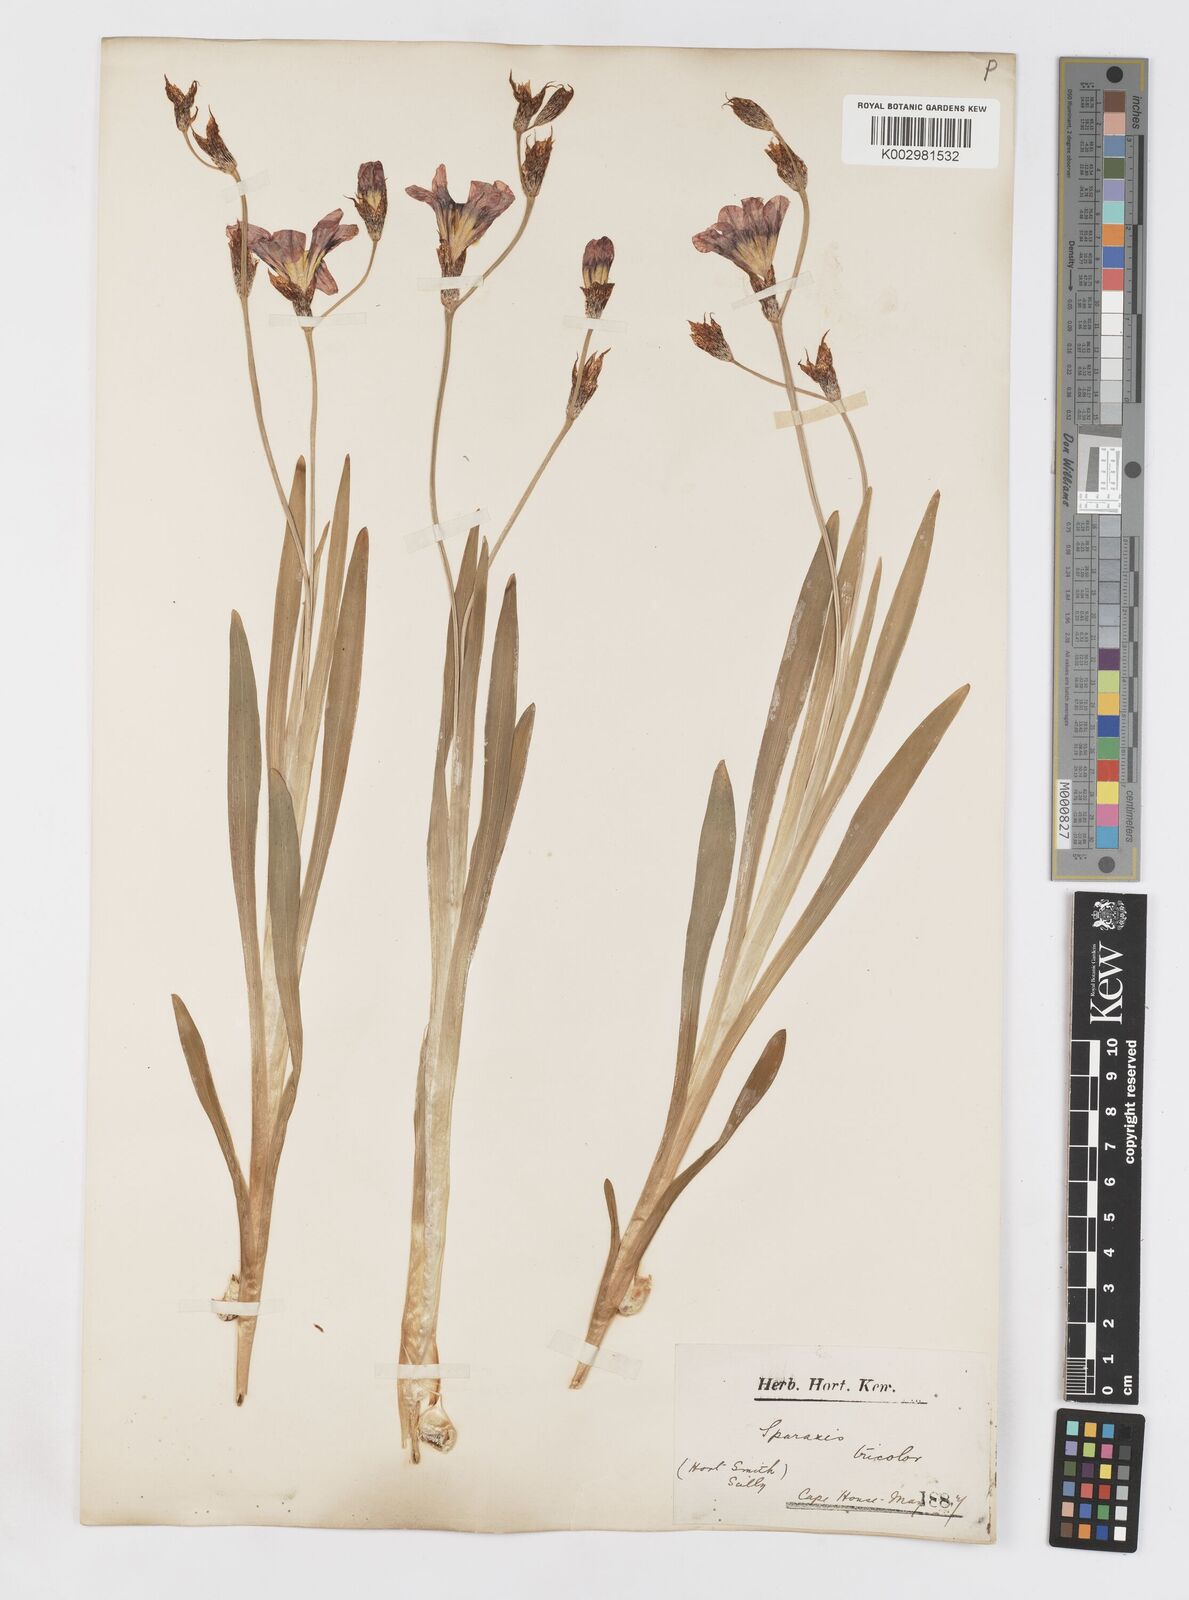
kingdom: Plantae
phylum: Tracheophyta
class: Liliopsida
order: Asparagales
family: Iridaceae
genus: Sparaxis
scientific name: Sparaxis tricolor
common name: Wandflower
